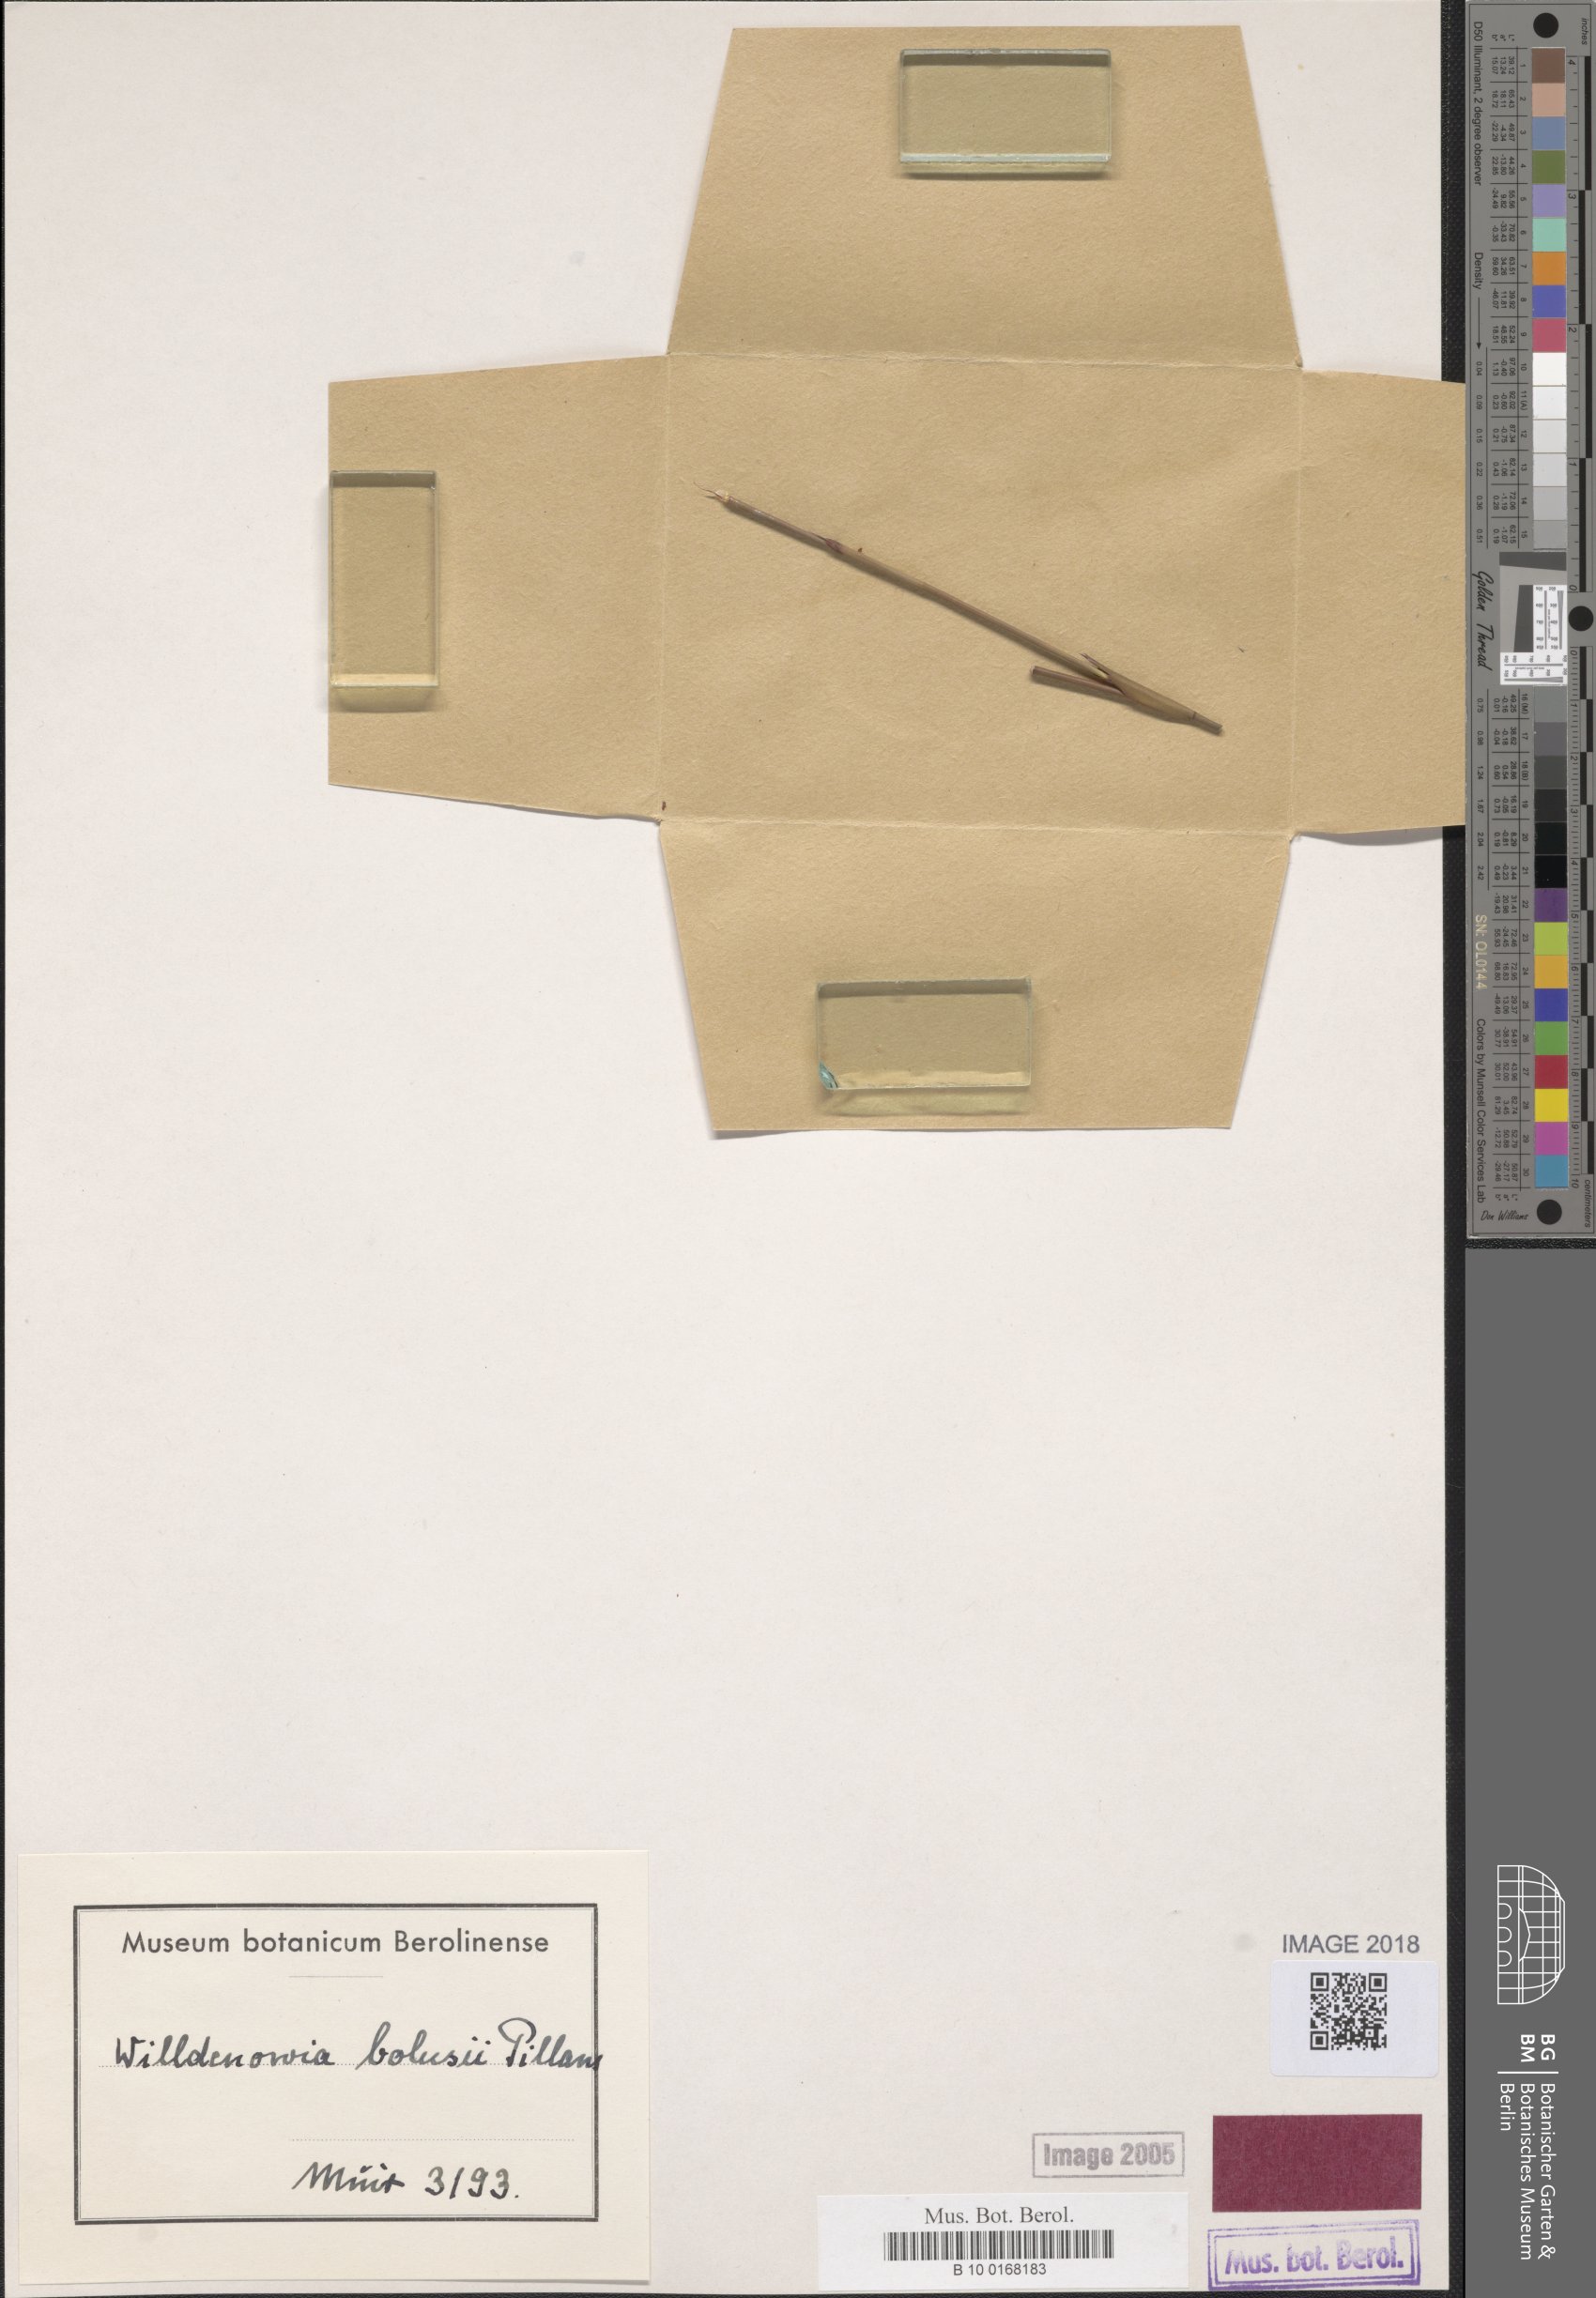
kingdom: Plantae
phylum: Tracheophyta
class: Liliopsida
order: Poales
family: Restionaceae
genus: Willdenowia
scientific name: Willdenowia bolusii
